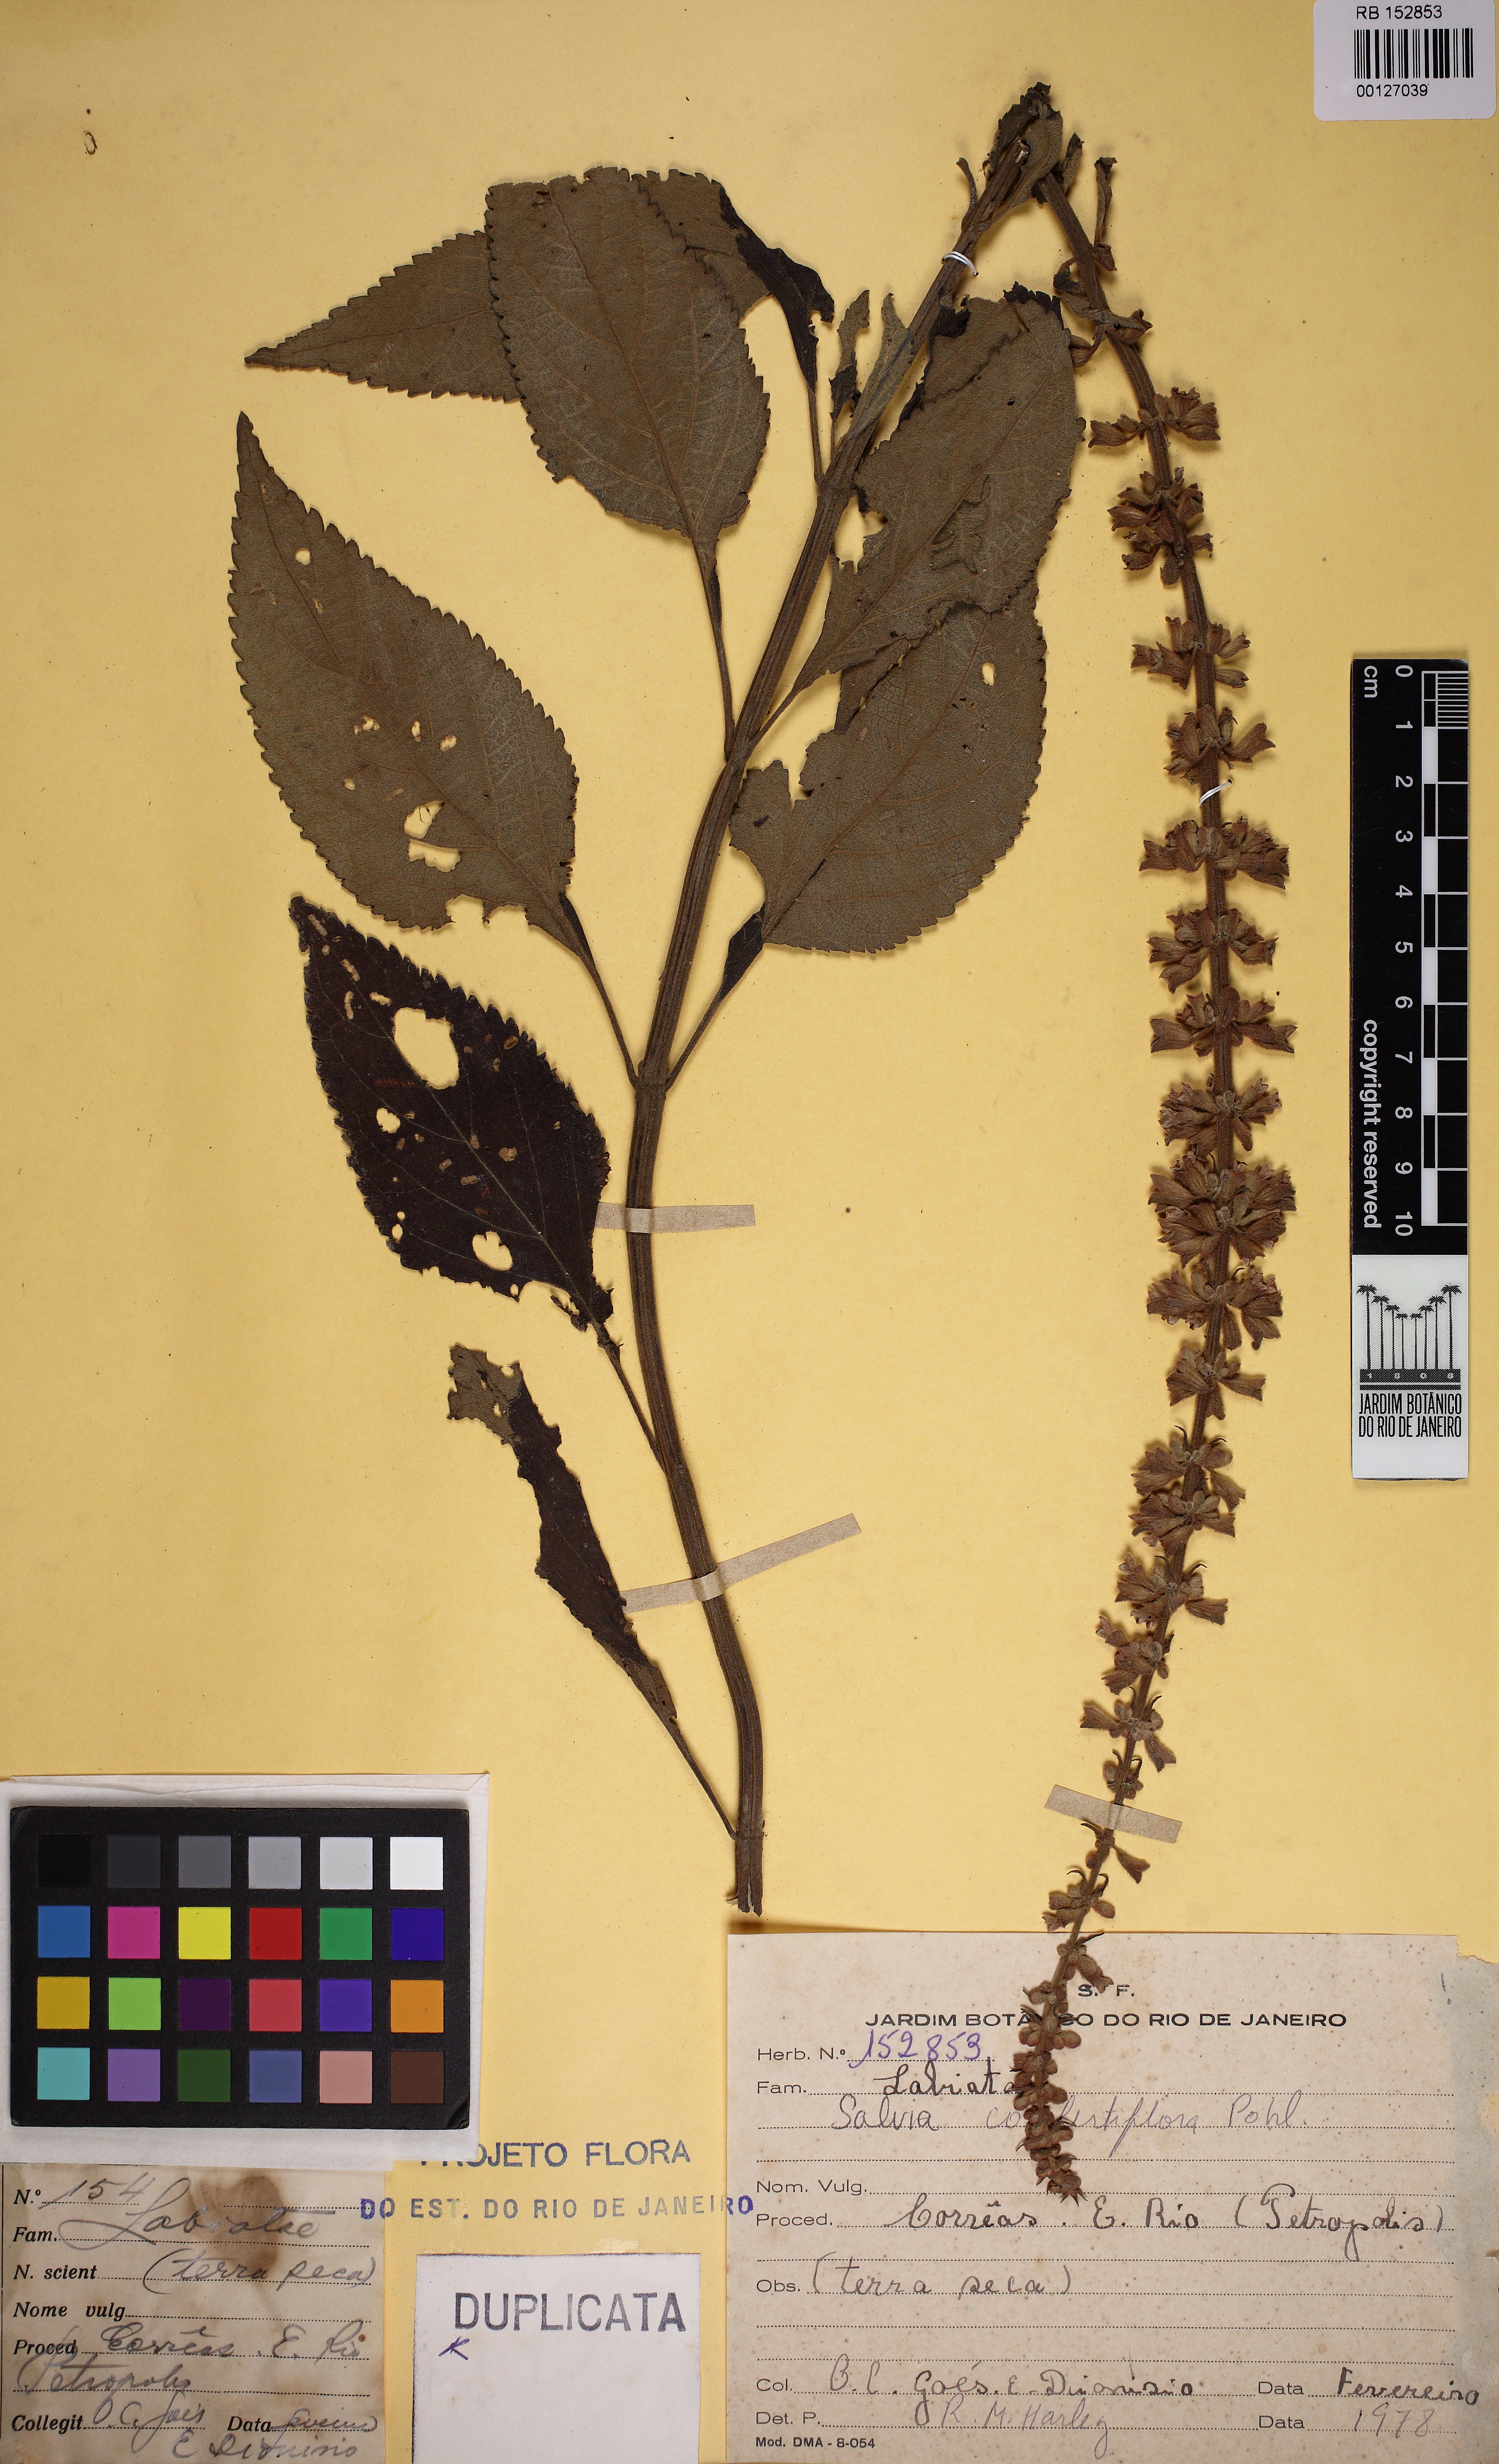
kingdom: Plantae
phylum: Tracheophyta
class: Magnoliopsida
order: Lamiales
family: Lamiaceae
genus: Salvia
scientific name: Salvia confertiflora
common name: Sabra-spike sage
